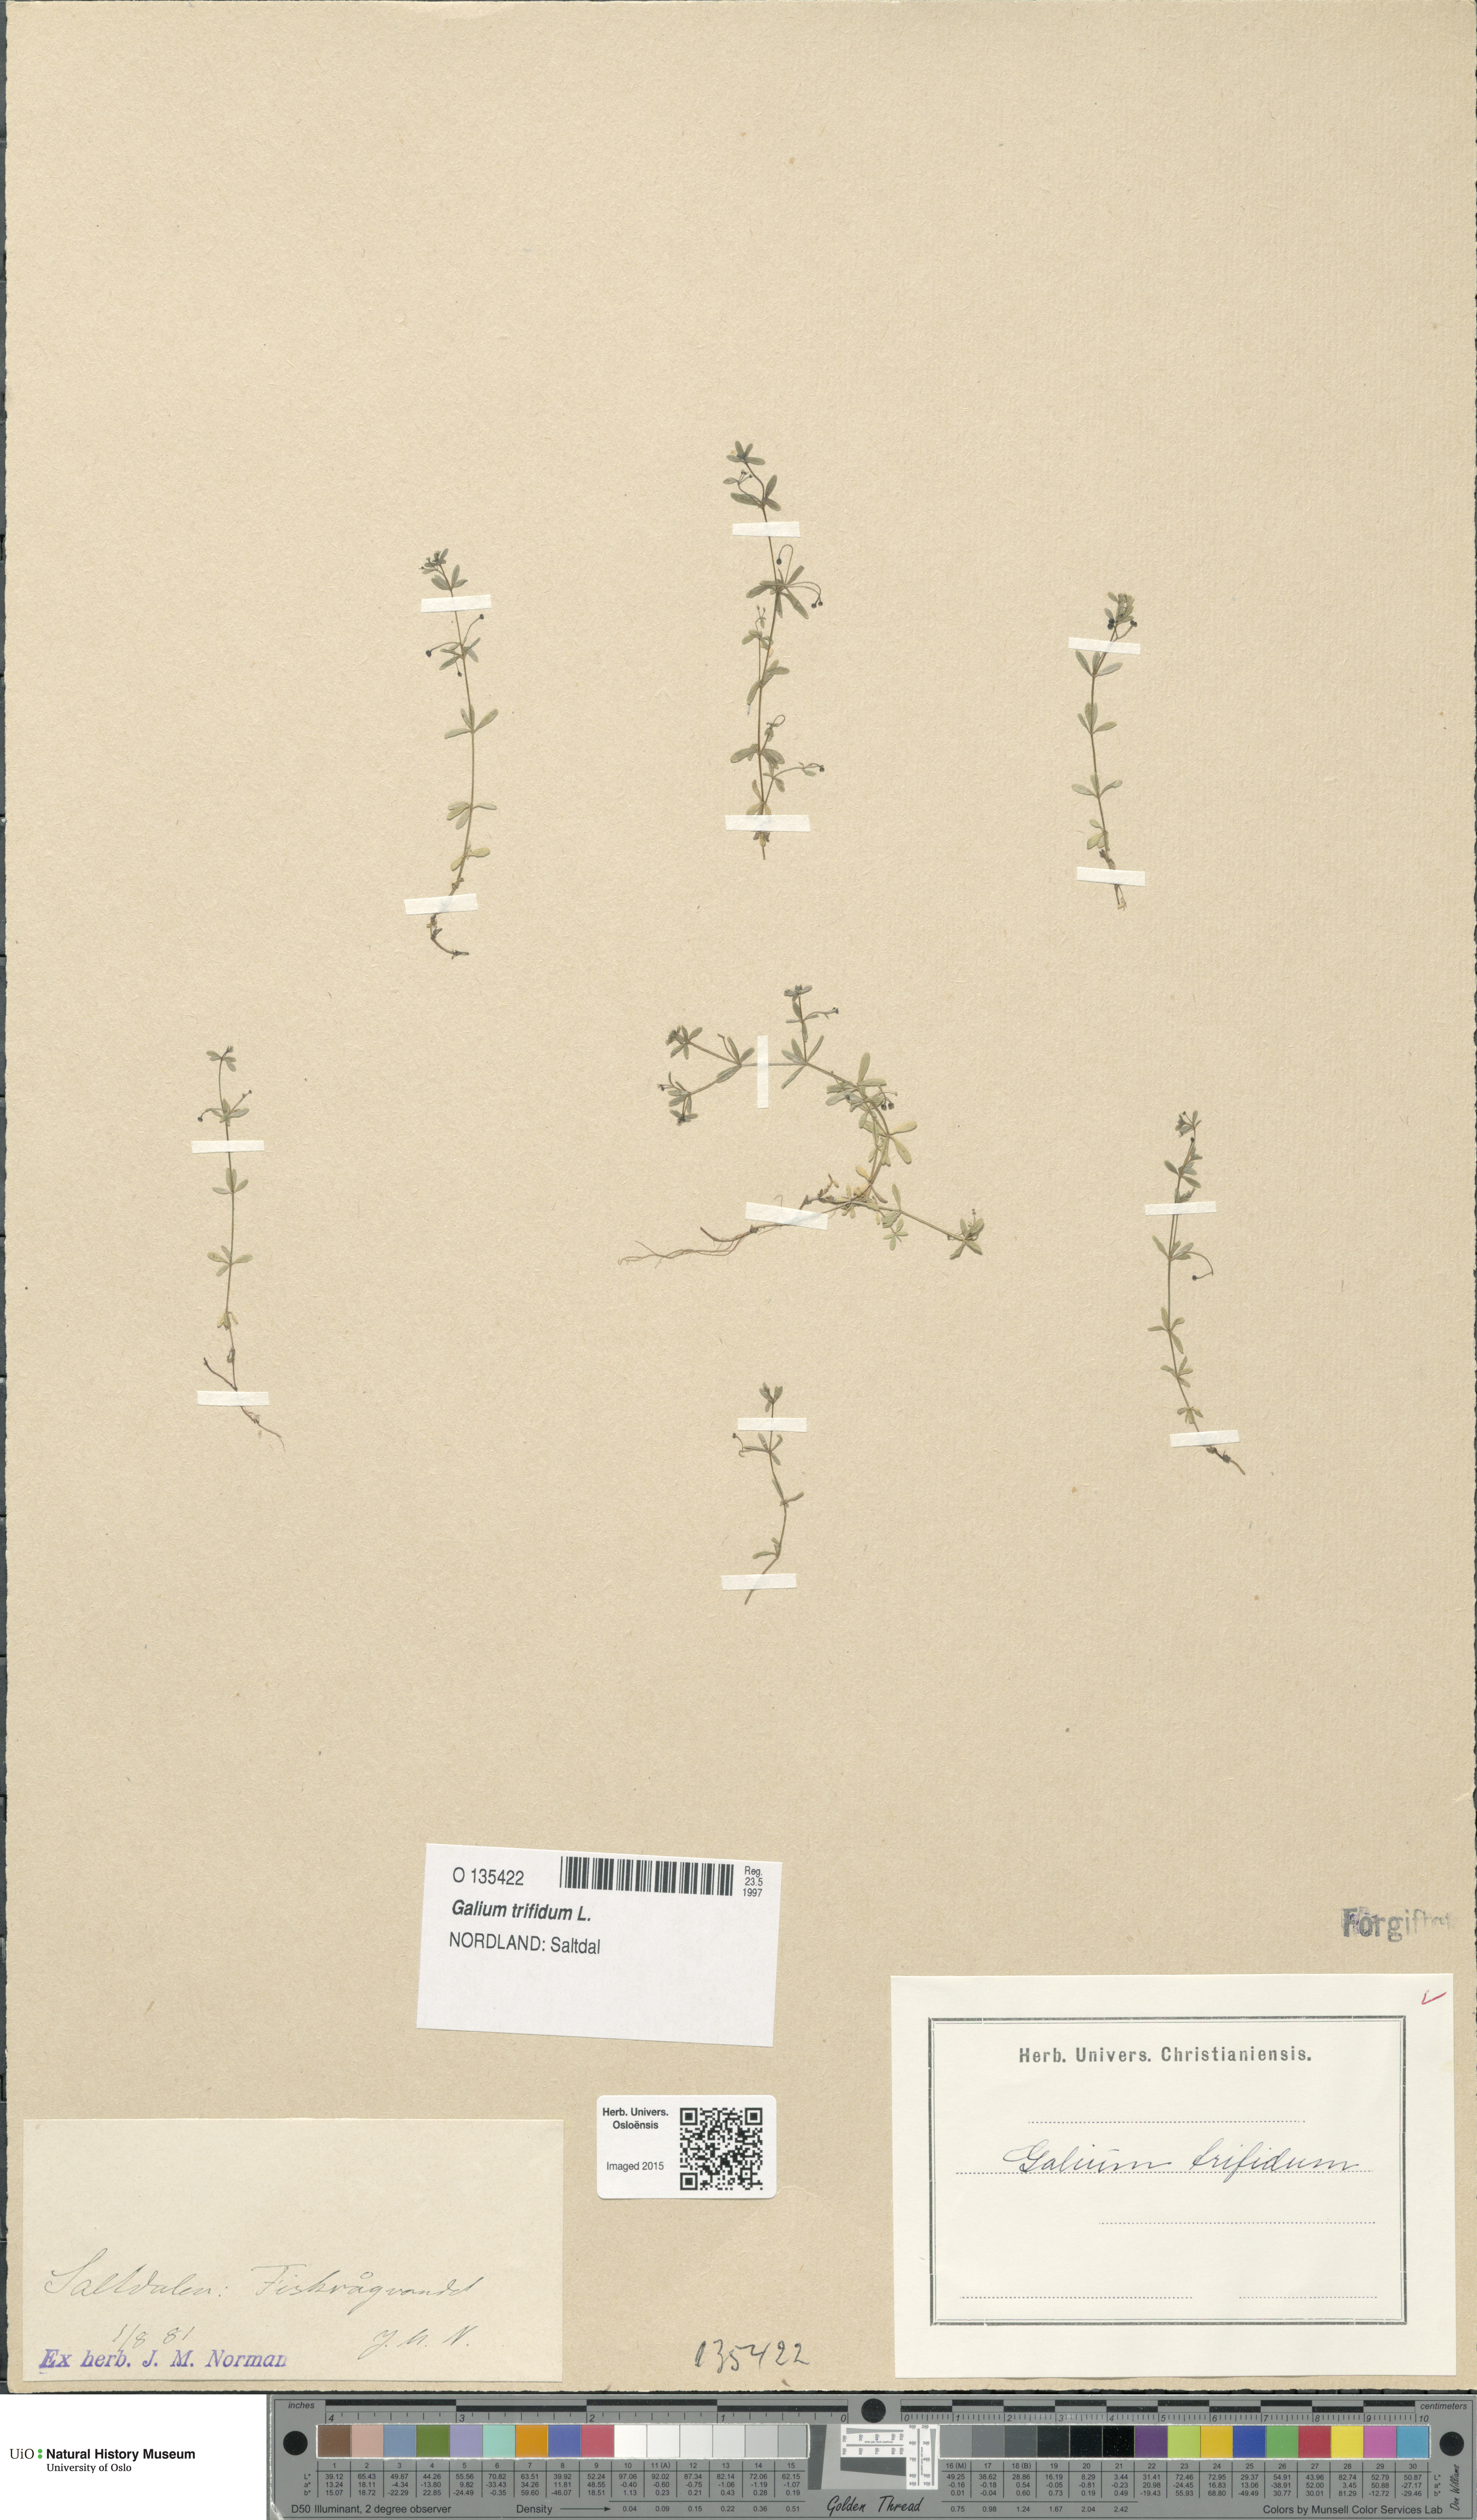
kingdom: Plantae
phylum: Tracheophyta
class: Magnoliopsida
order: Gentianales
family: Rubiaceae
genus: Galium
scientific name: Galium trifidum
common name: Small bedstraw
